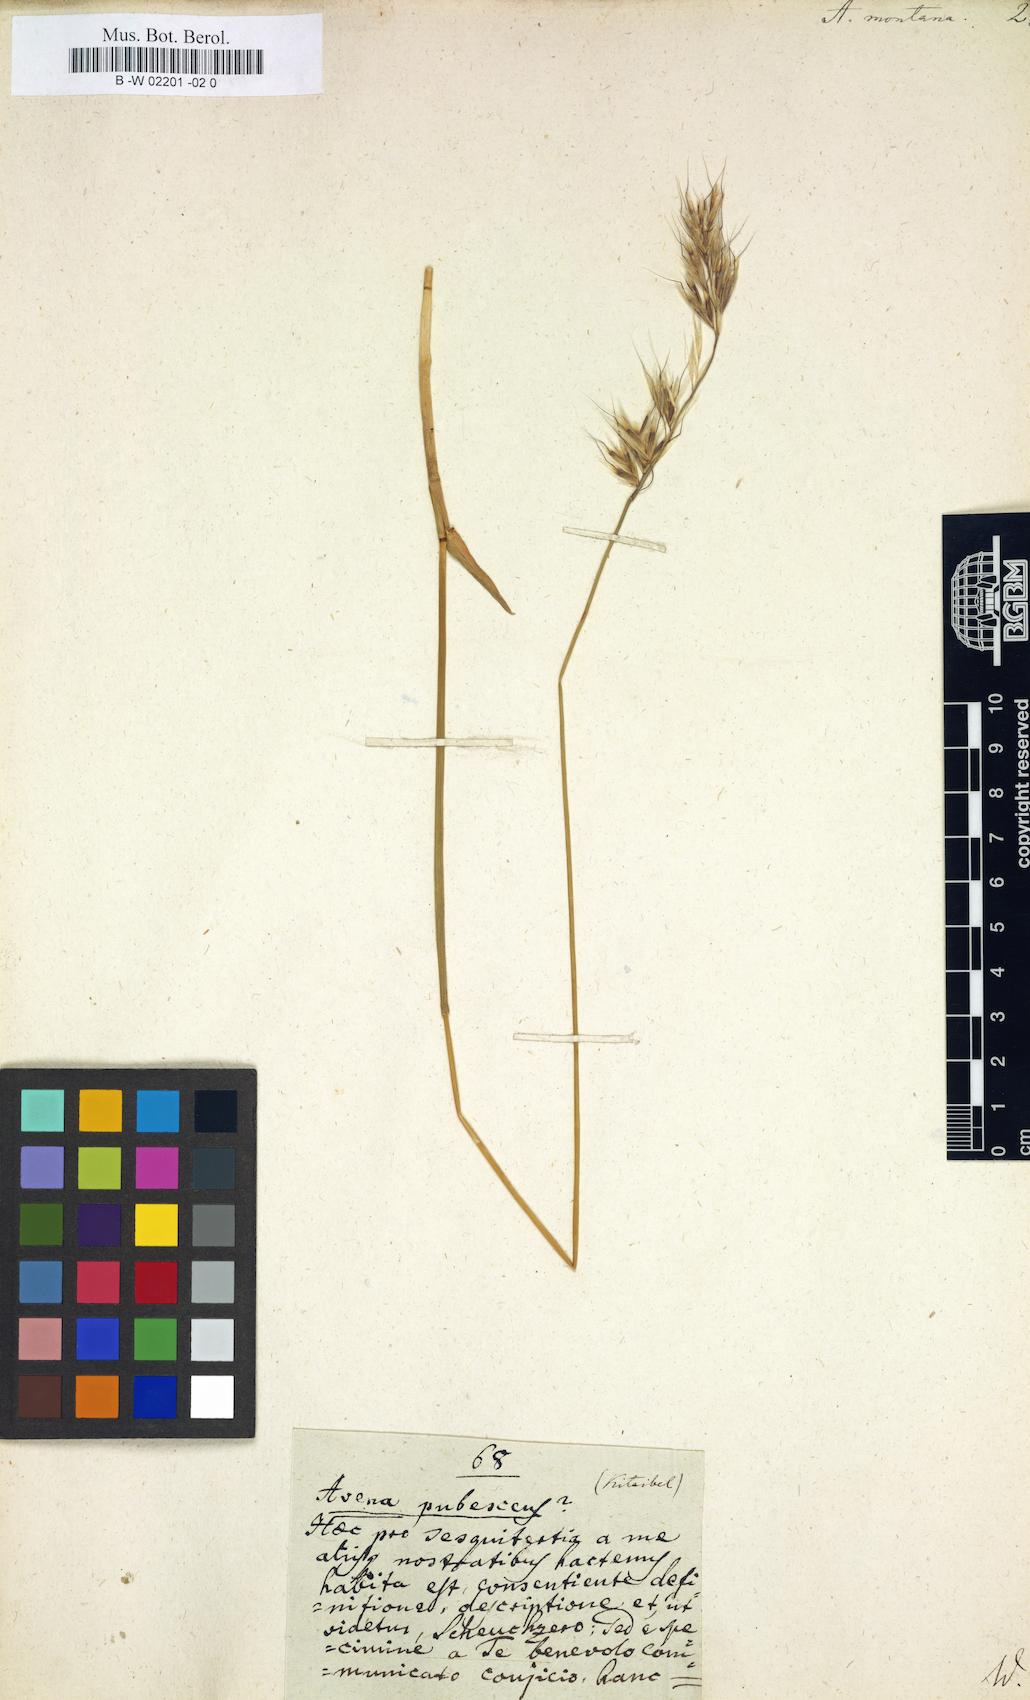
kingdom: Plantae
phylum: Tracheophyta
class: Liliopsida
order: Poales
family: Poaceae
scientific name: Poaceae
